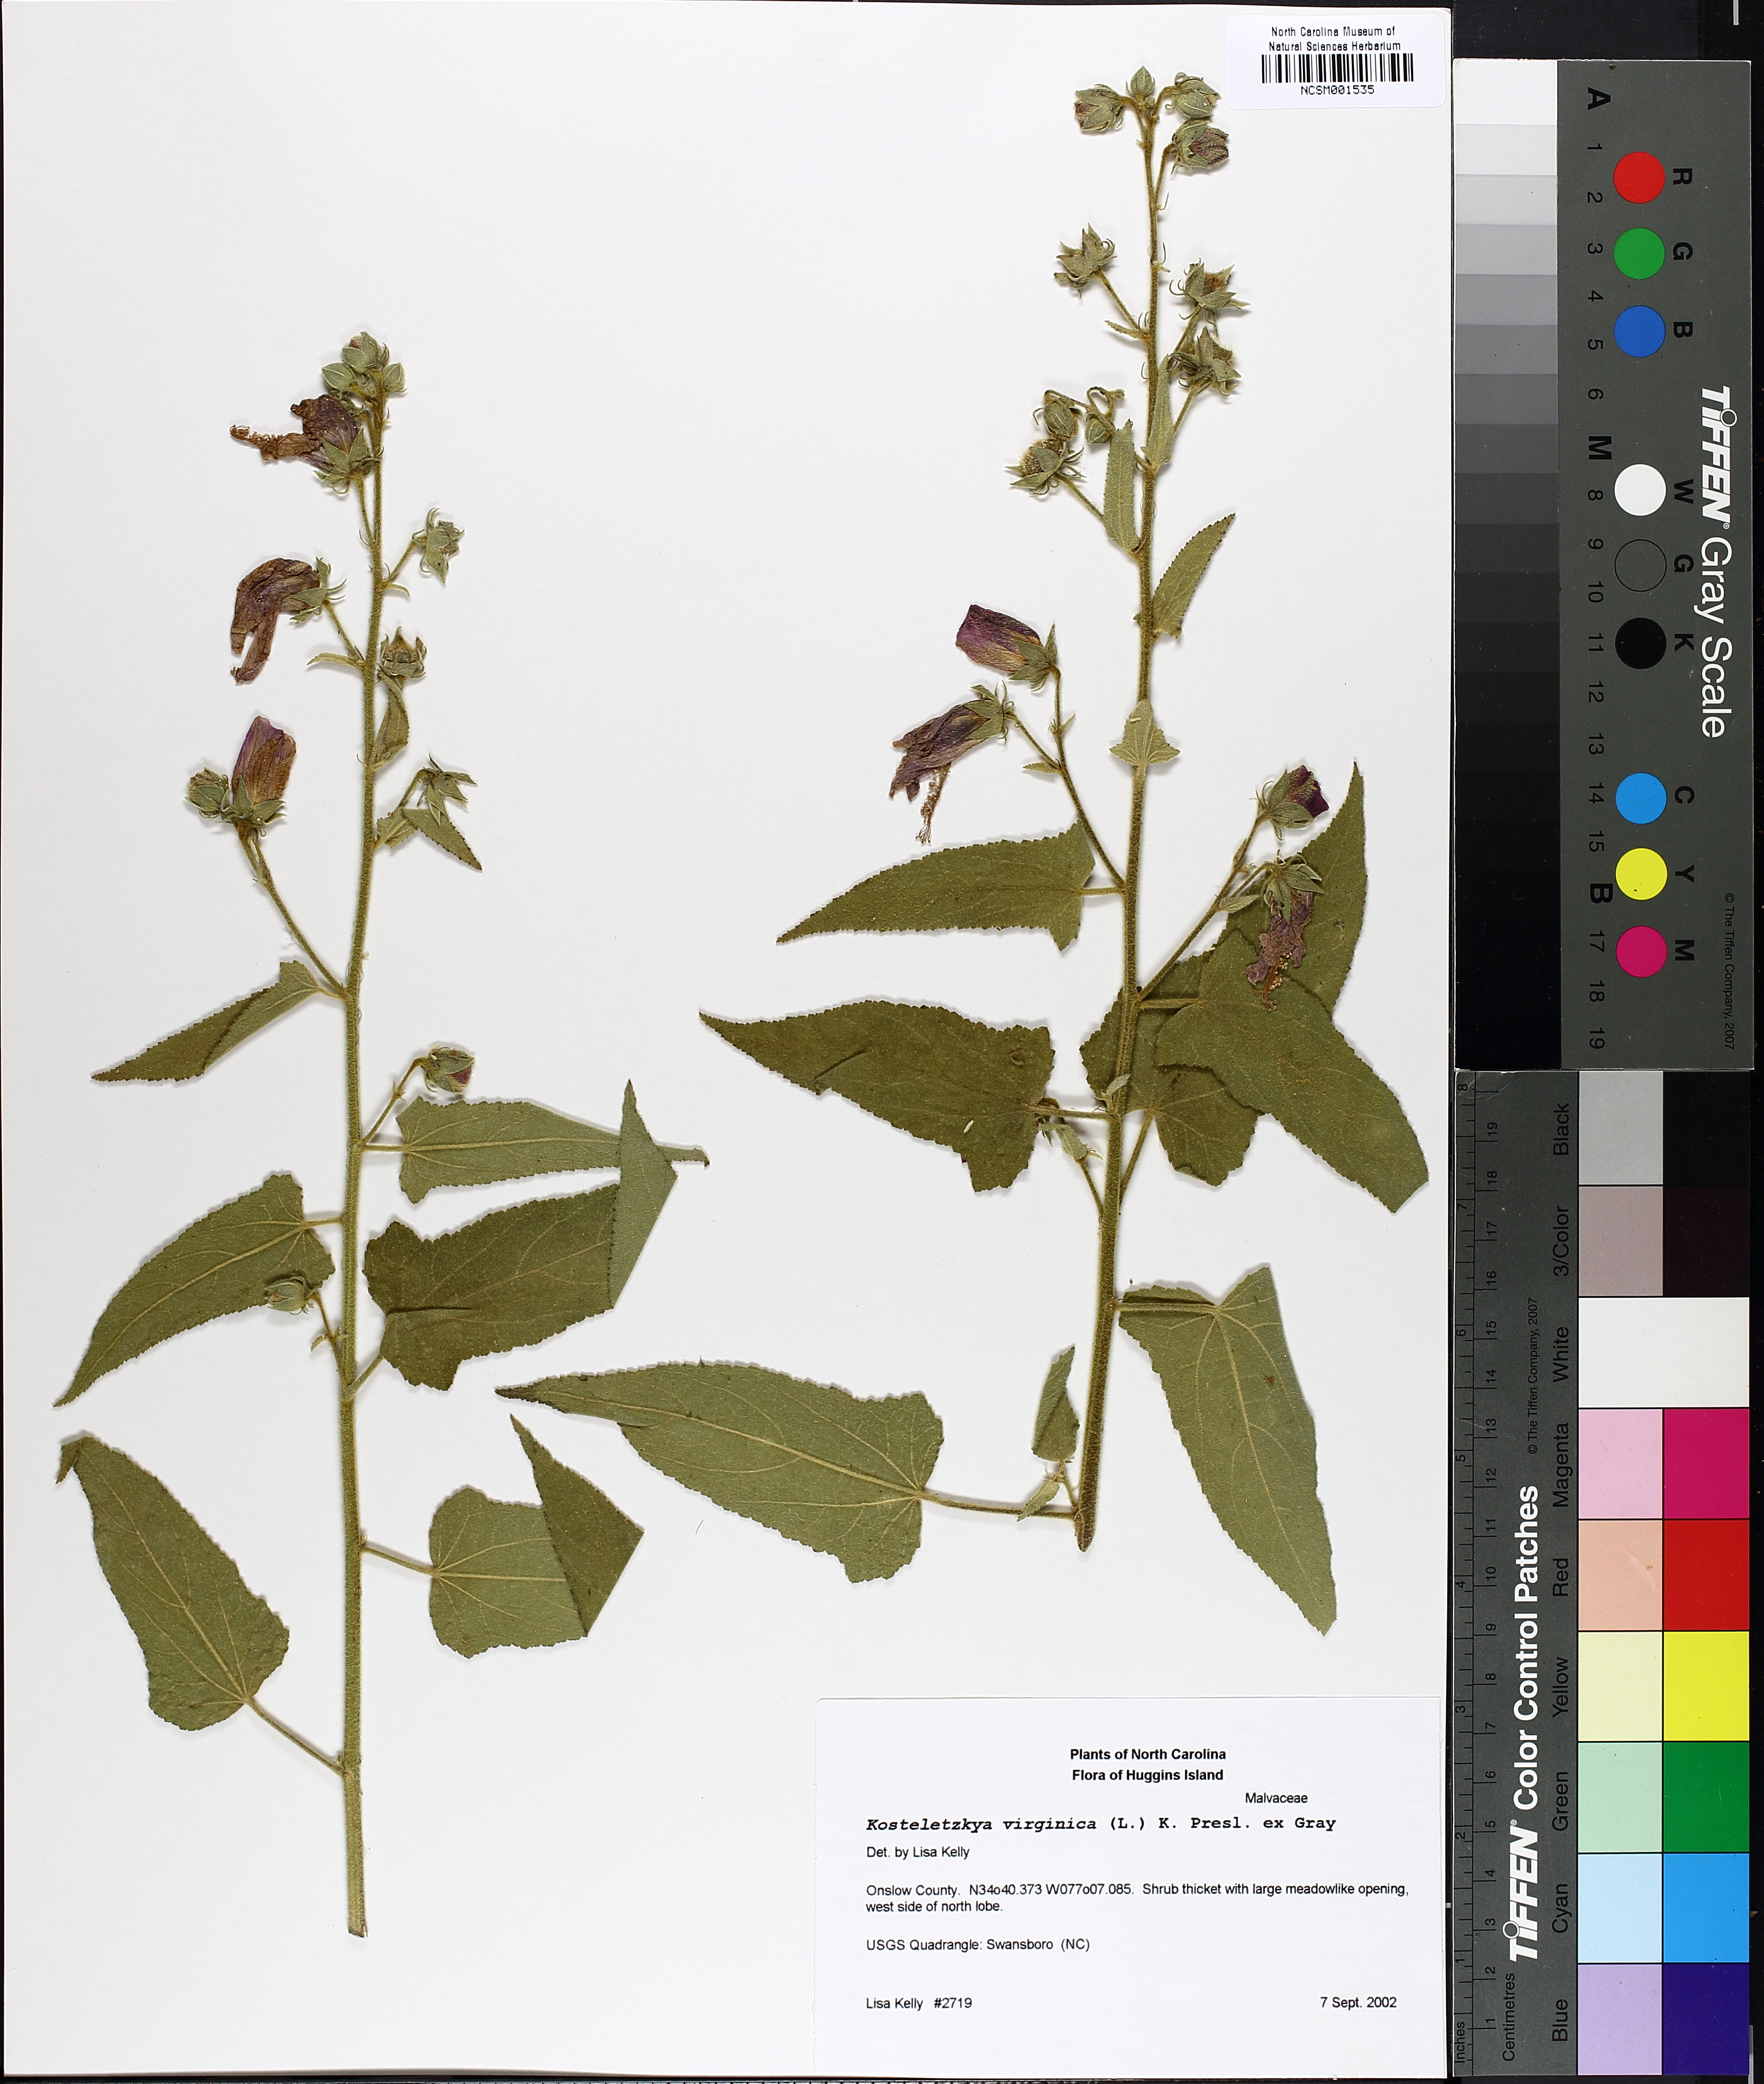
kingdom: Plantae
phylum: Tracheophyta
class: Magnoliopsida
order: Malvales
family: Malvaceae
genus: Kosteletzkya
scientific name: Kosteletzkya pentacarpos
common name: Virginia saltmarsh mallow
